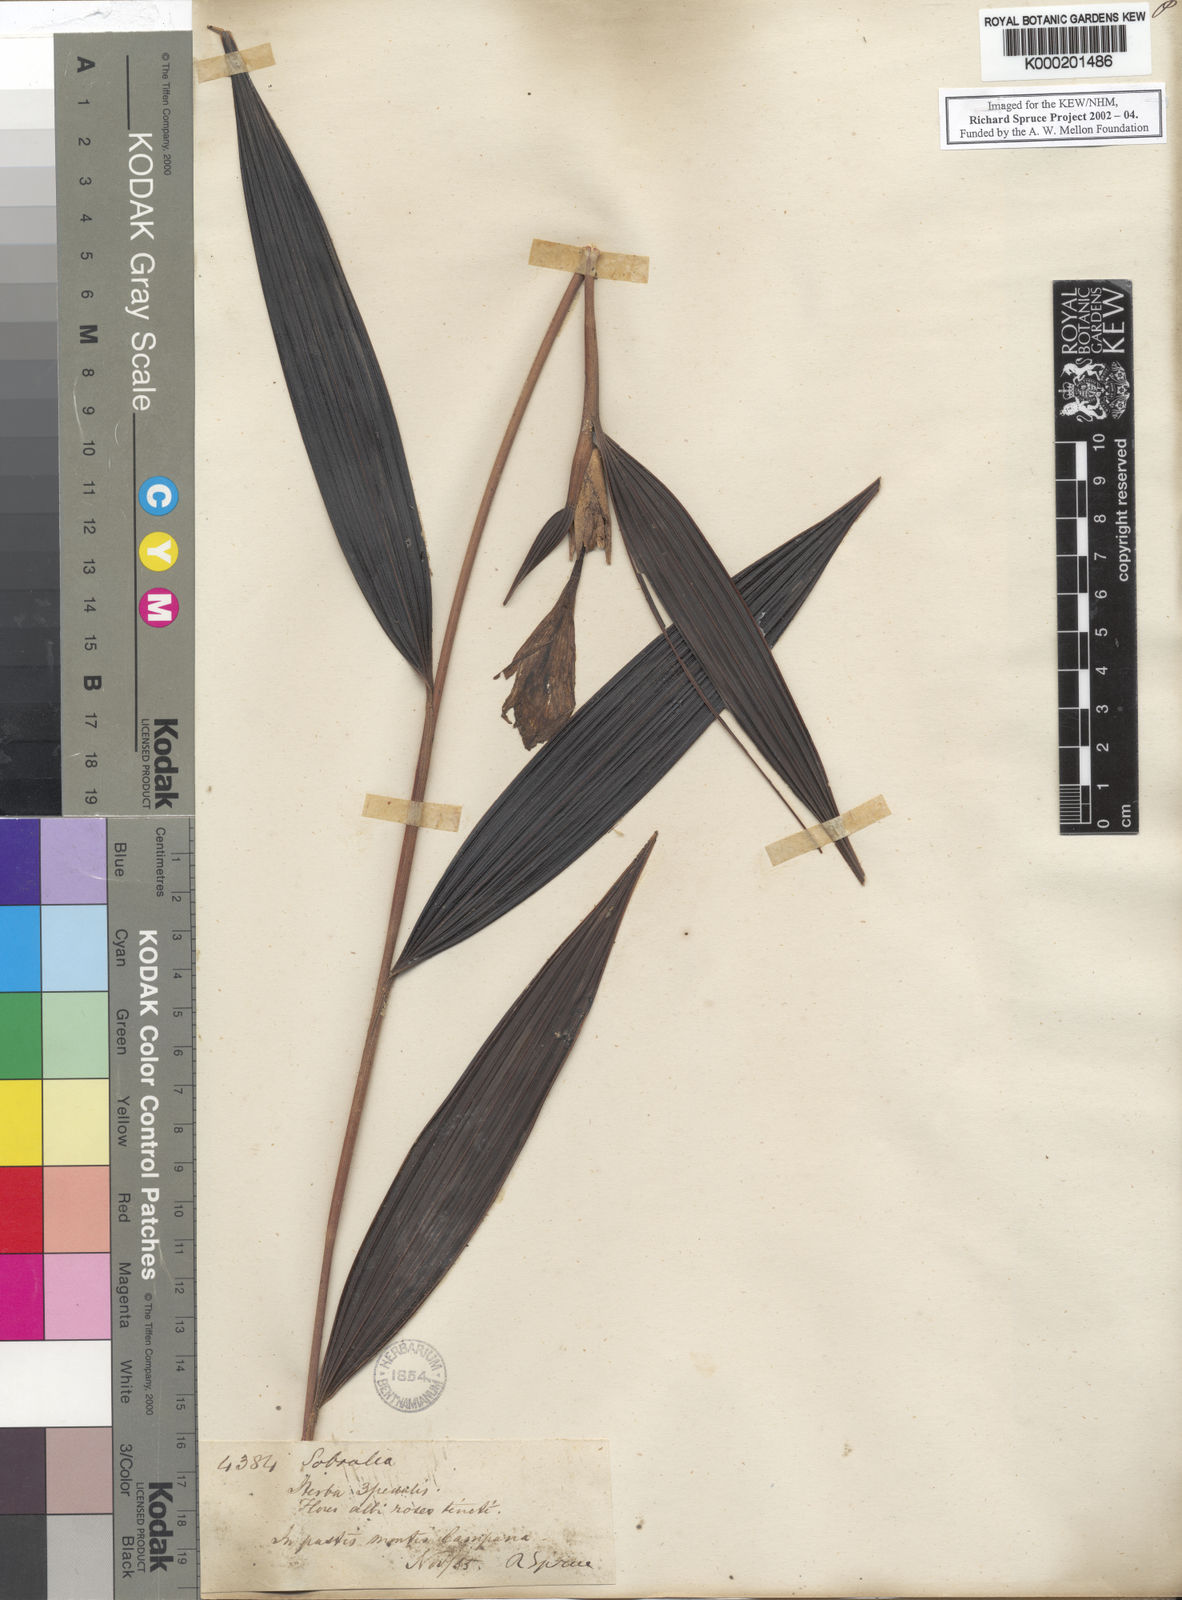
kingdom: Plantae
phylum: Tracheophyta
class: Liliopsida
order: Asparagales
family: Orchidaceae
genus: Sobralia
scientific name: Sobralia violacea
